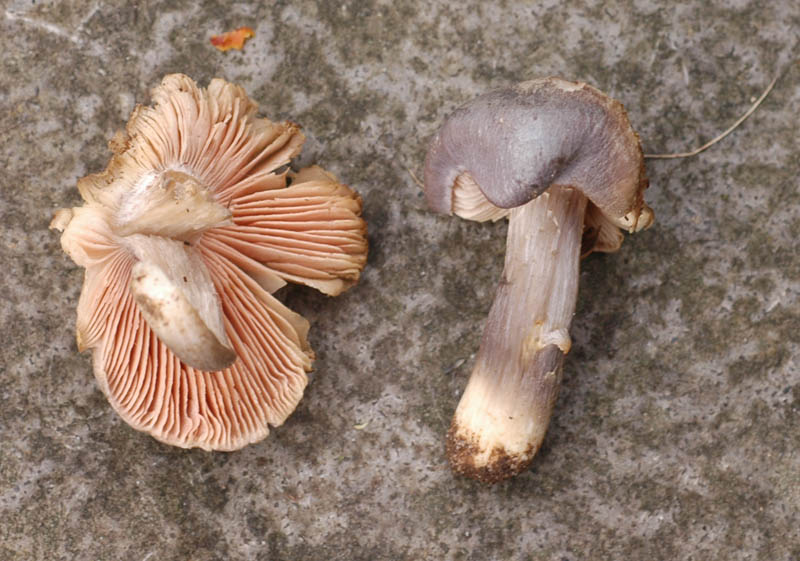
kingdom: Fungi
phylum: Basidiomycota
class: Agaricomycetes
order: Agaricales
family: Entolomataceae
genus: Entoloma
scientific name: Entoloma
